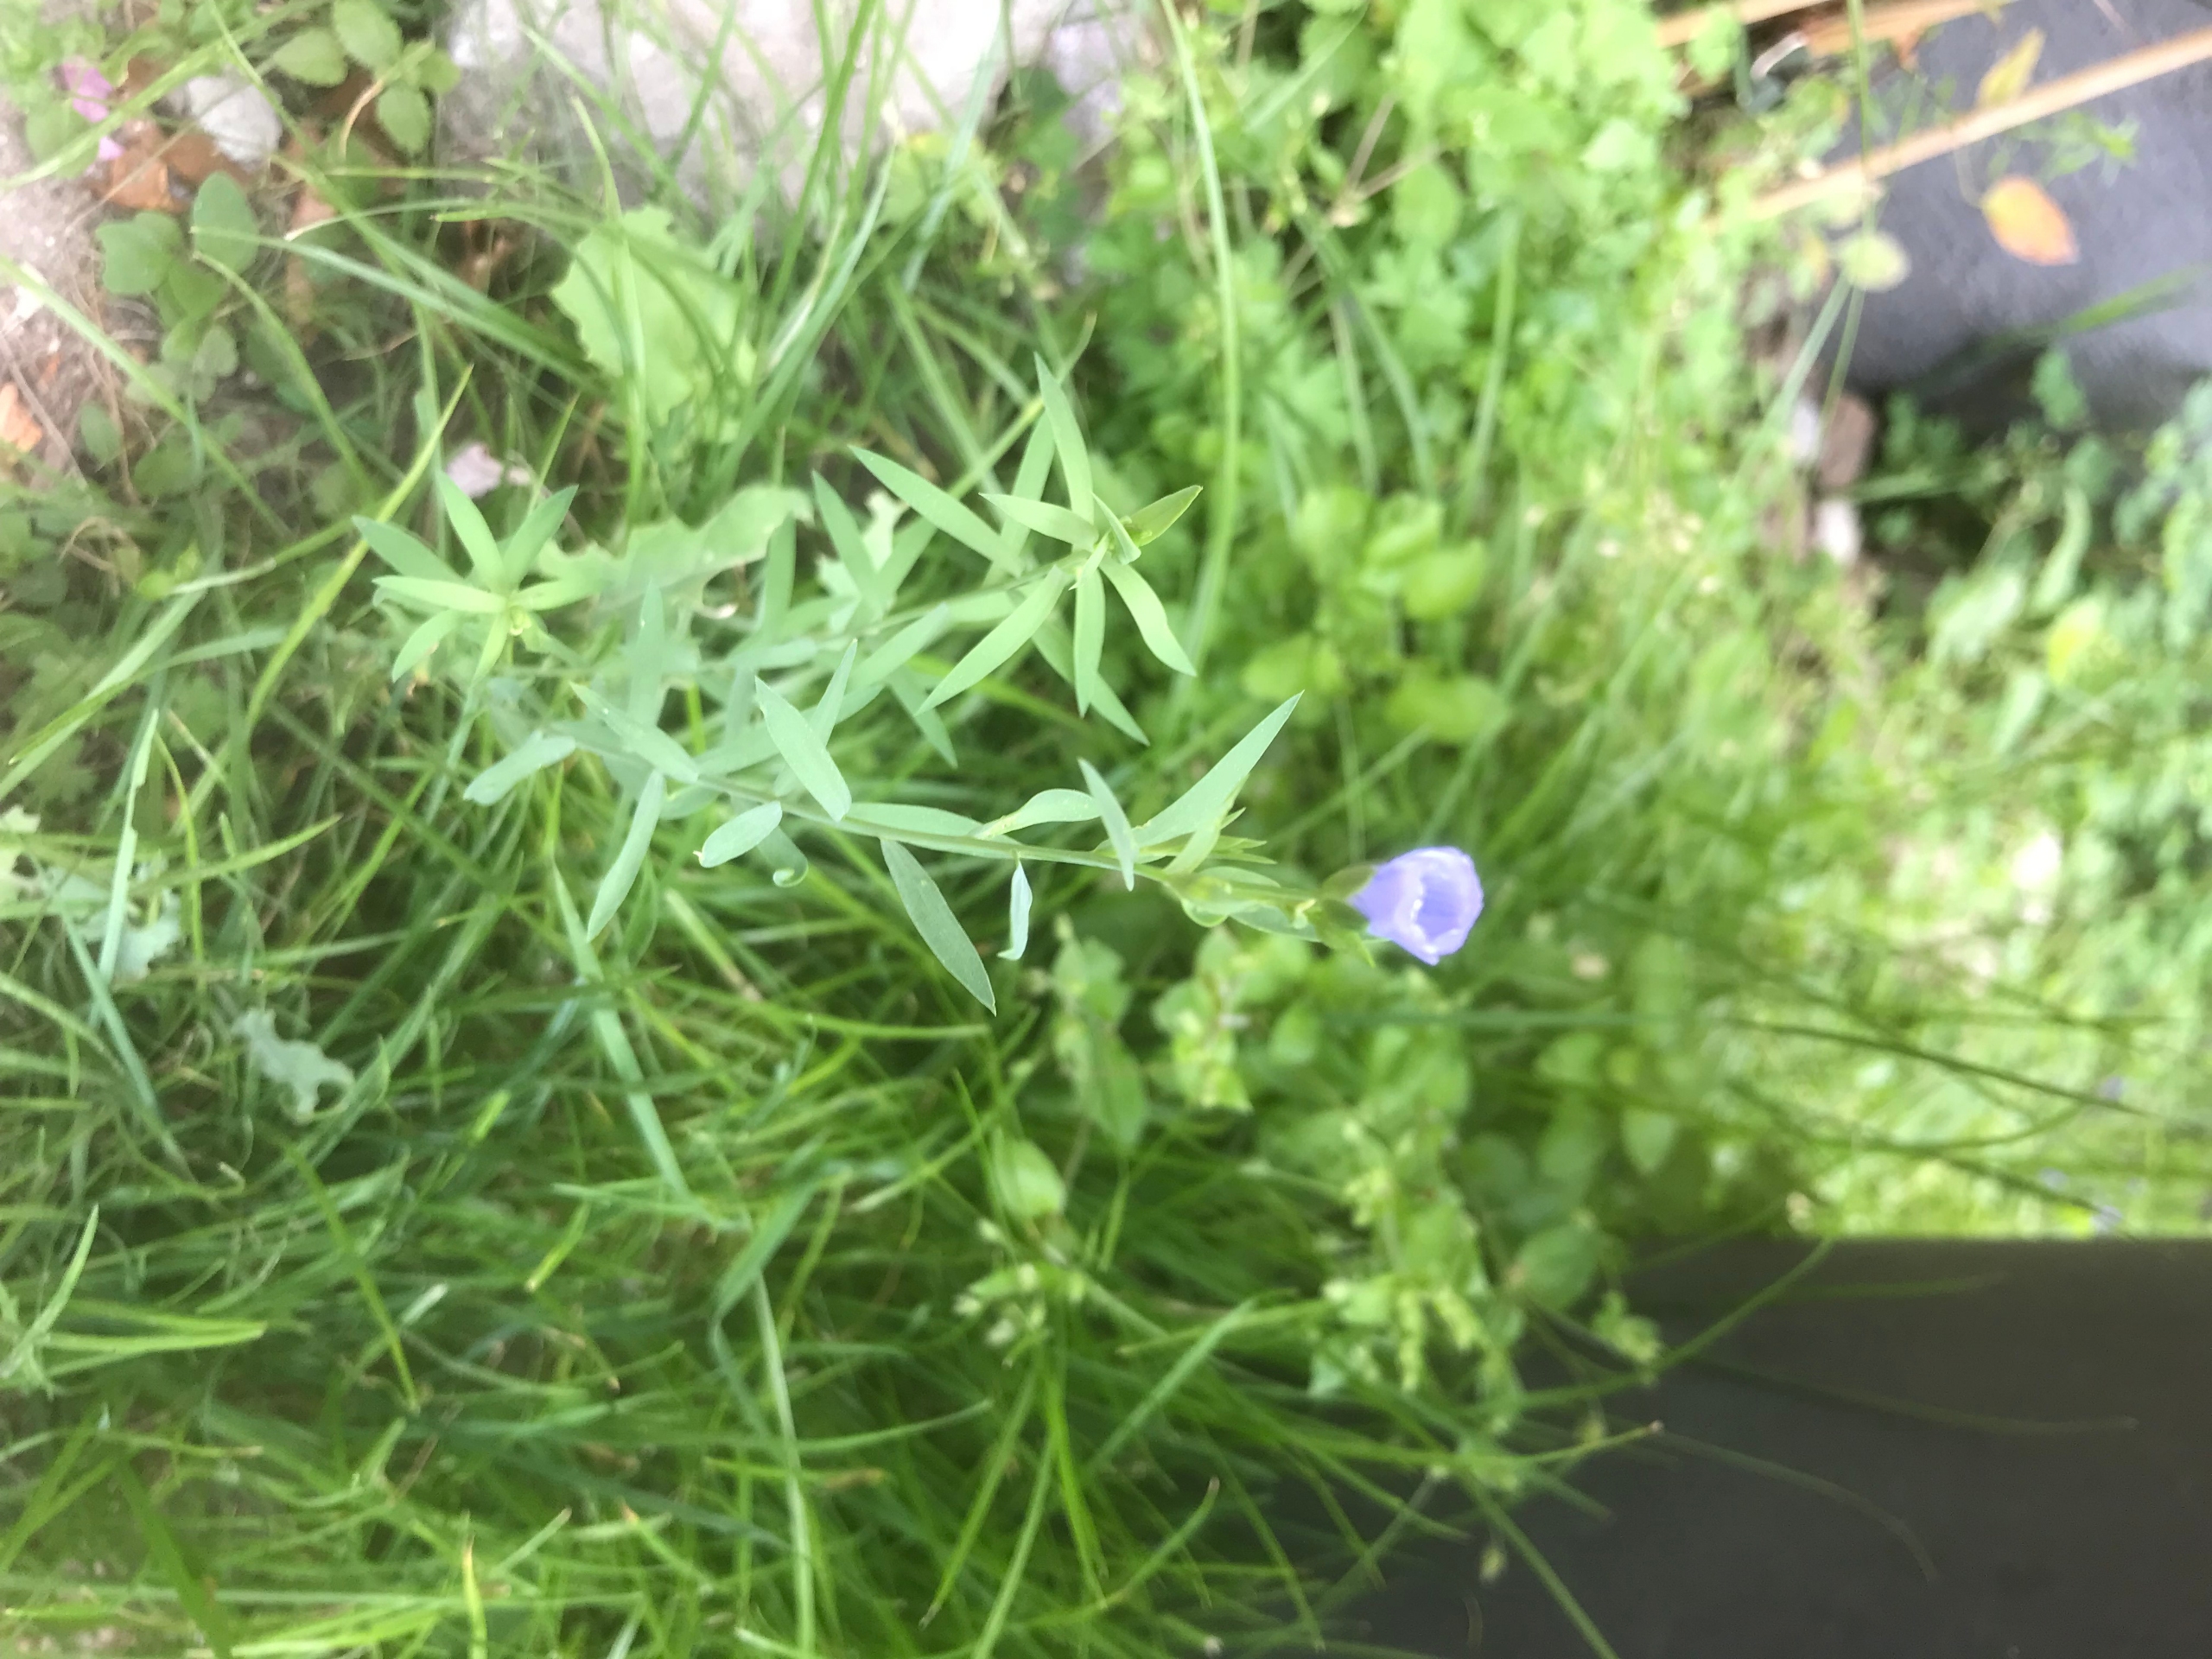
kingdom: Plantae
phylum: Tracheophyta
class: Magnoliopsida
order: Malpighiales
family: Linaceae
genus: Linum
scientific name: Linum usitatissimum
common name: Almindelig hør
